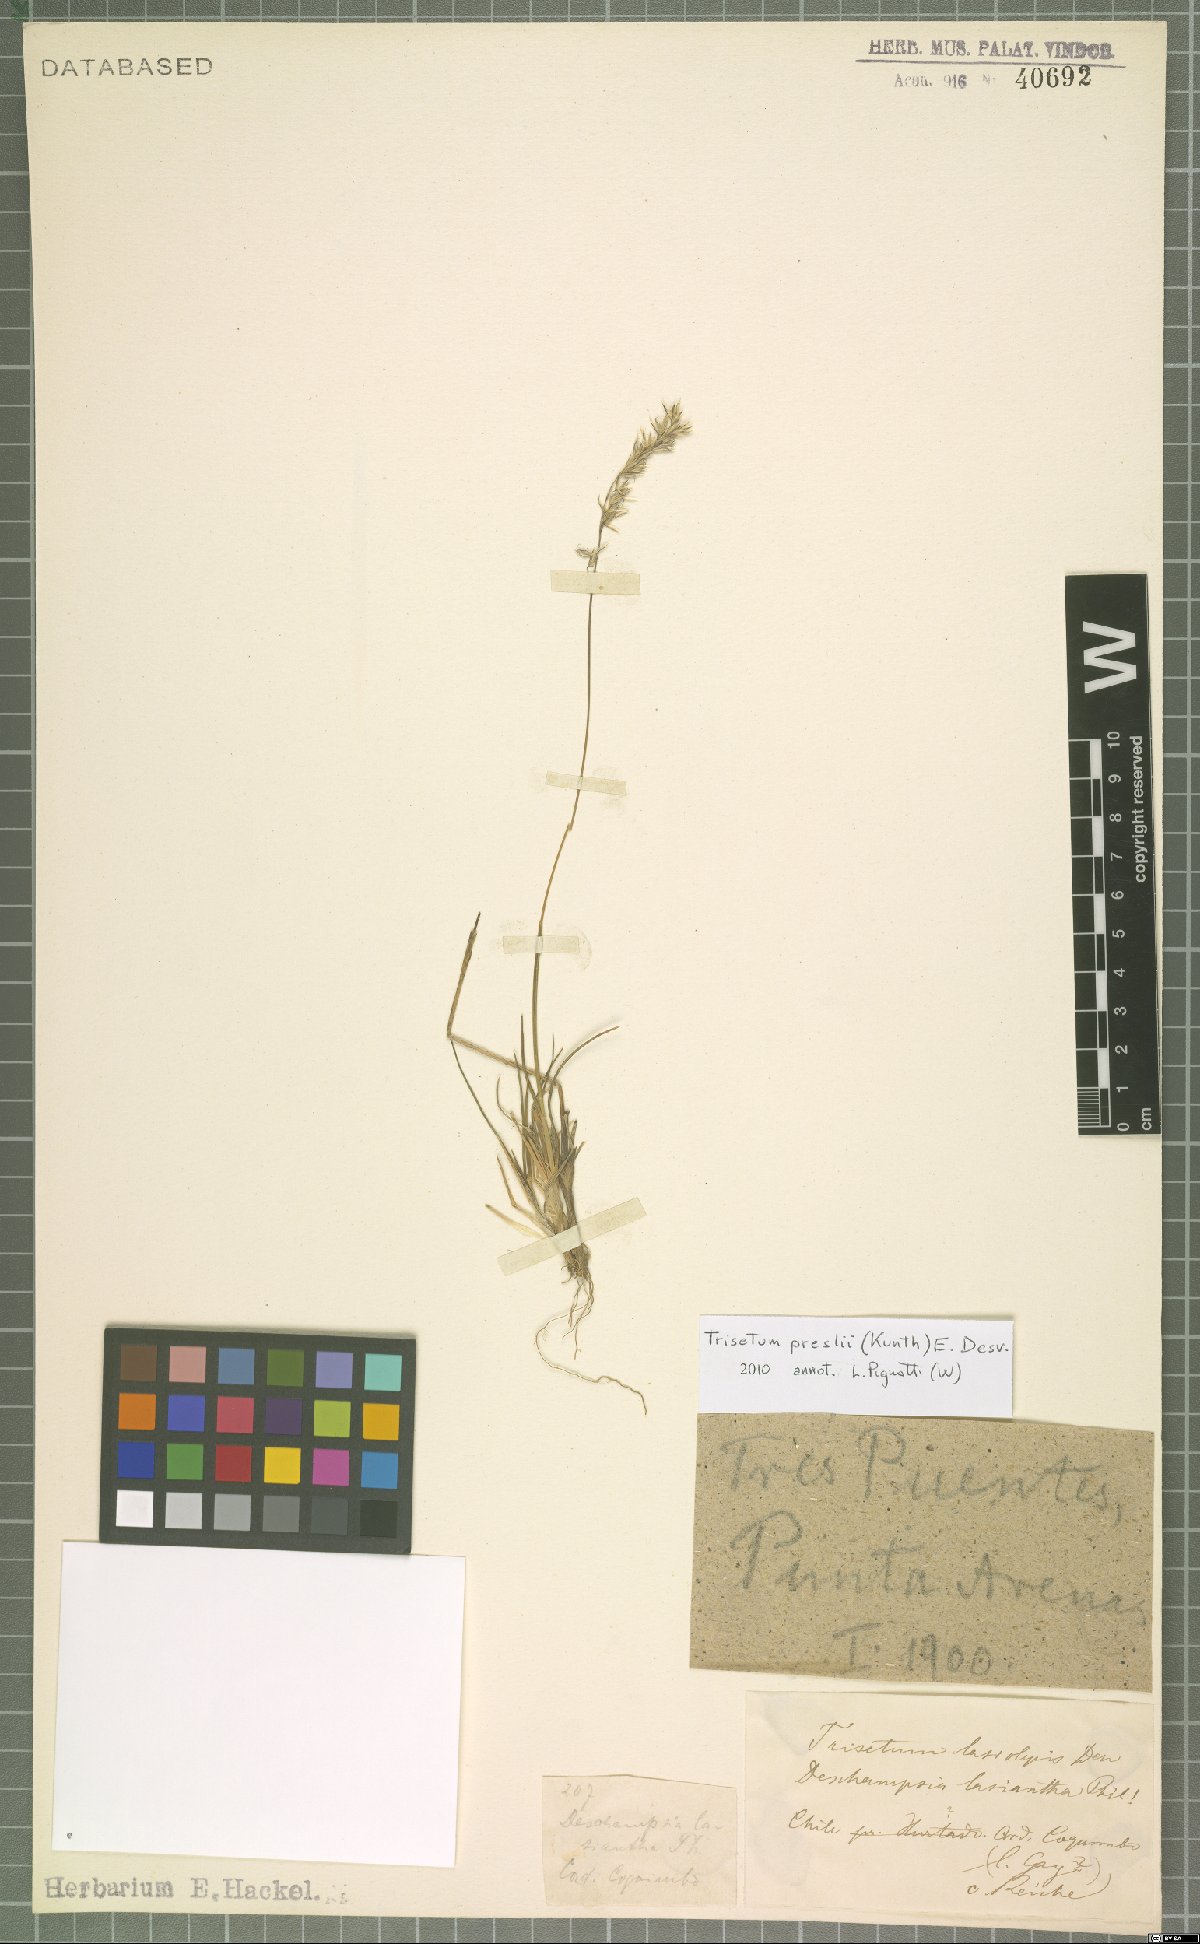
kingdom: Plantae
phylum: Tracheophyta
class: Liliopsida
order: Poales
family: Poaceae
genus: Koeleria
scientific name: Koeleria preslii
